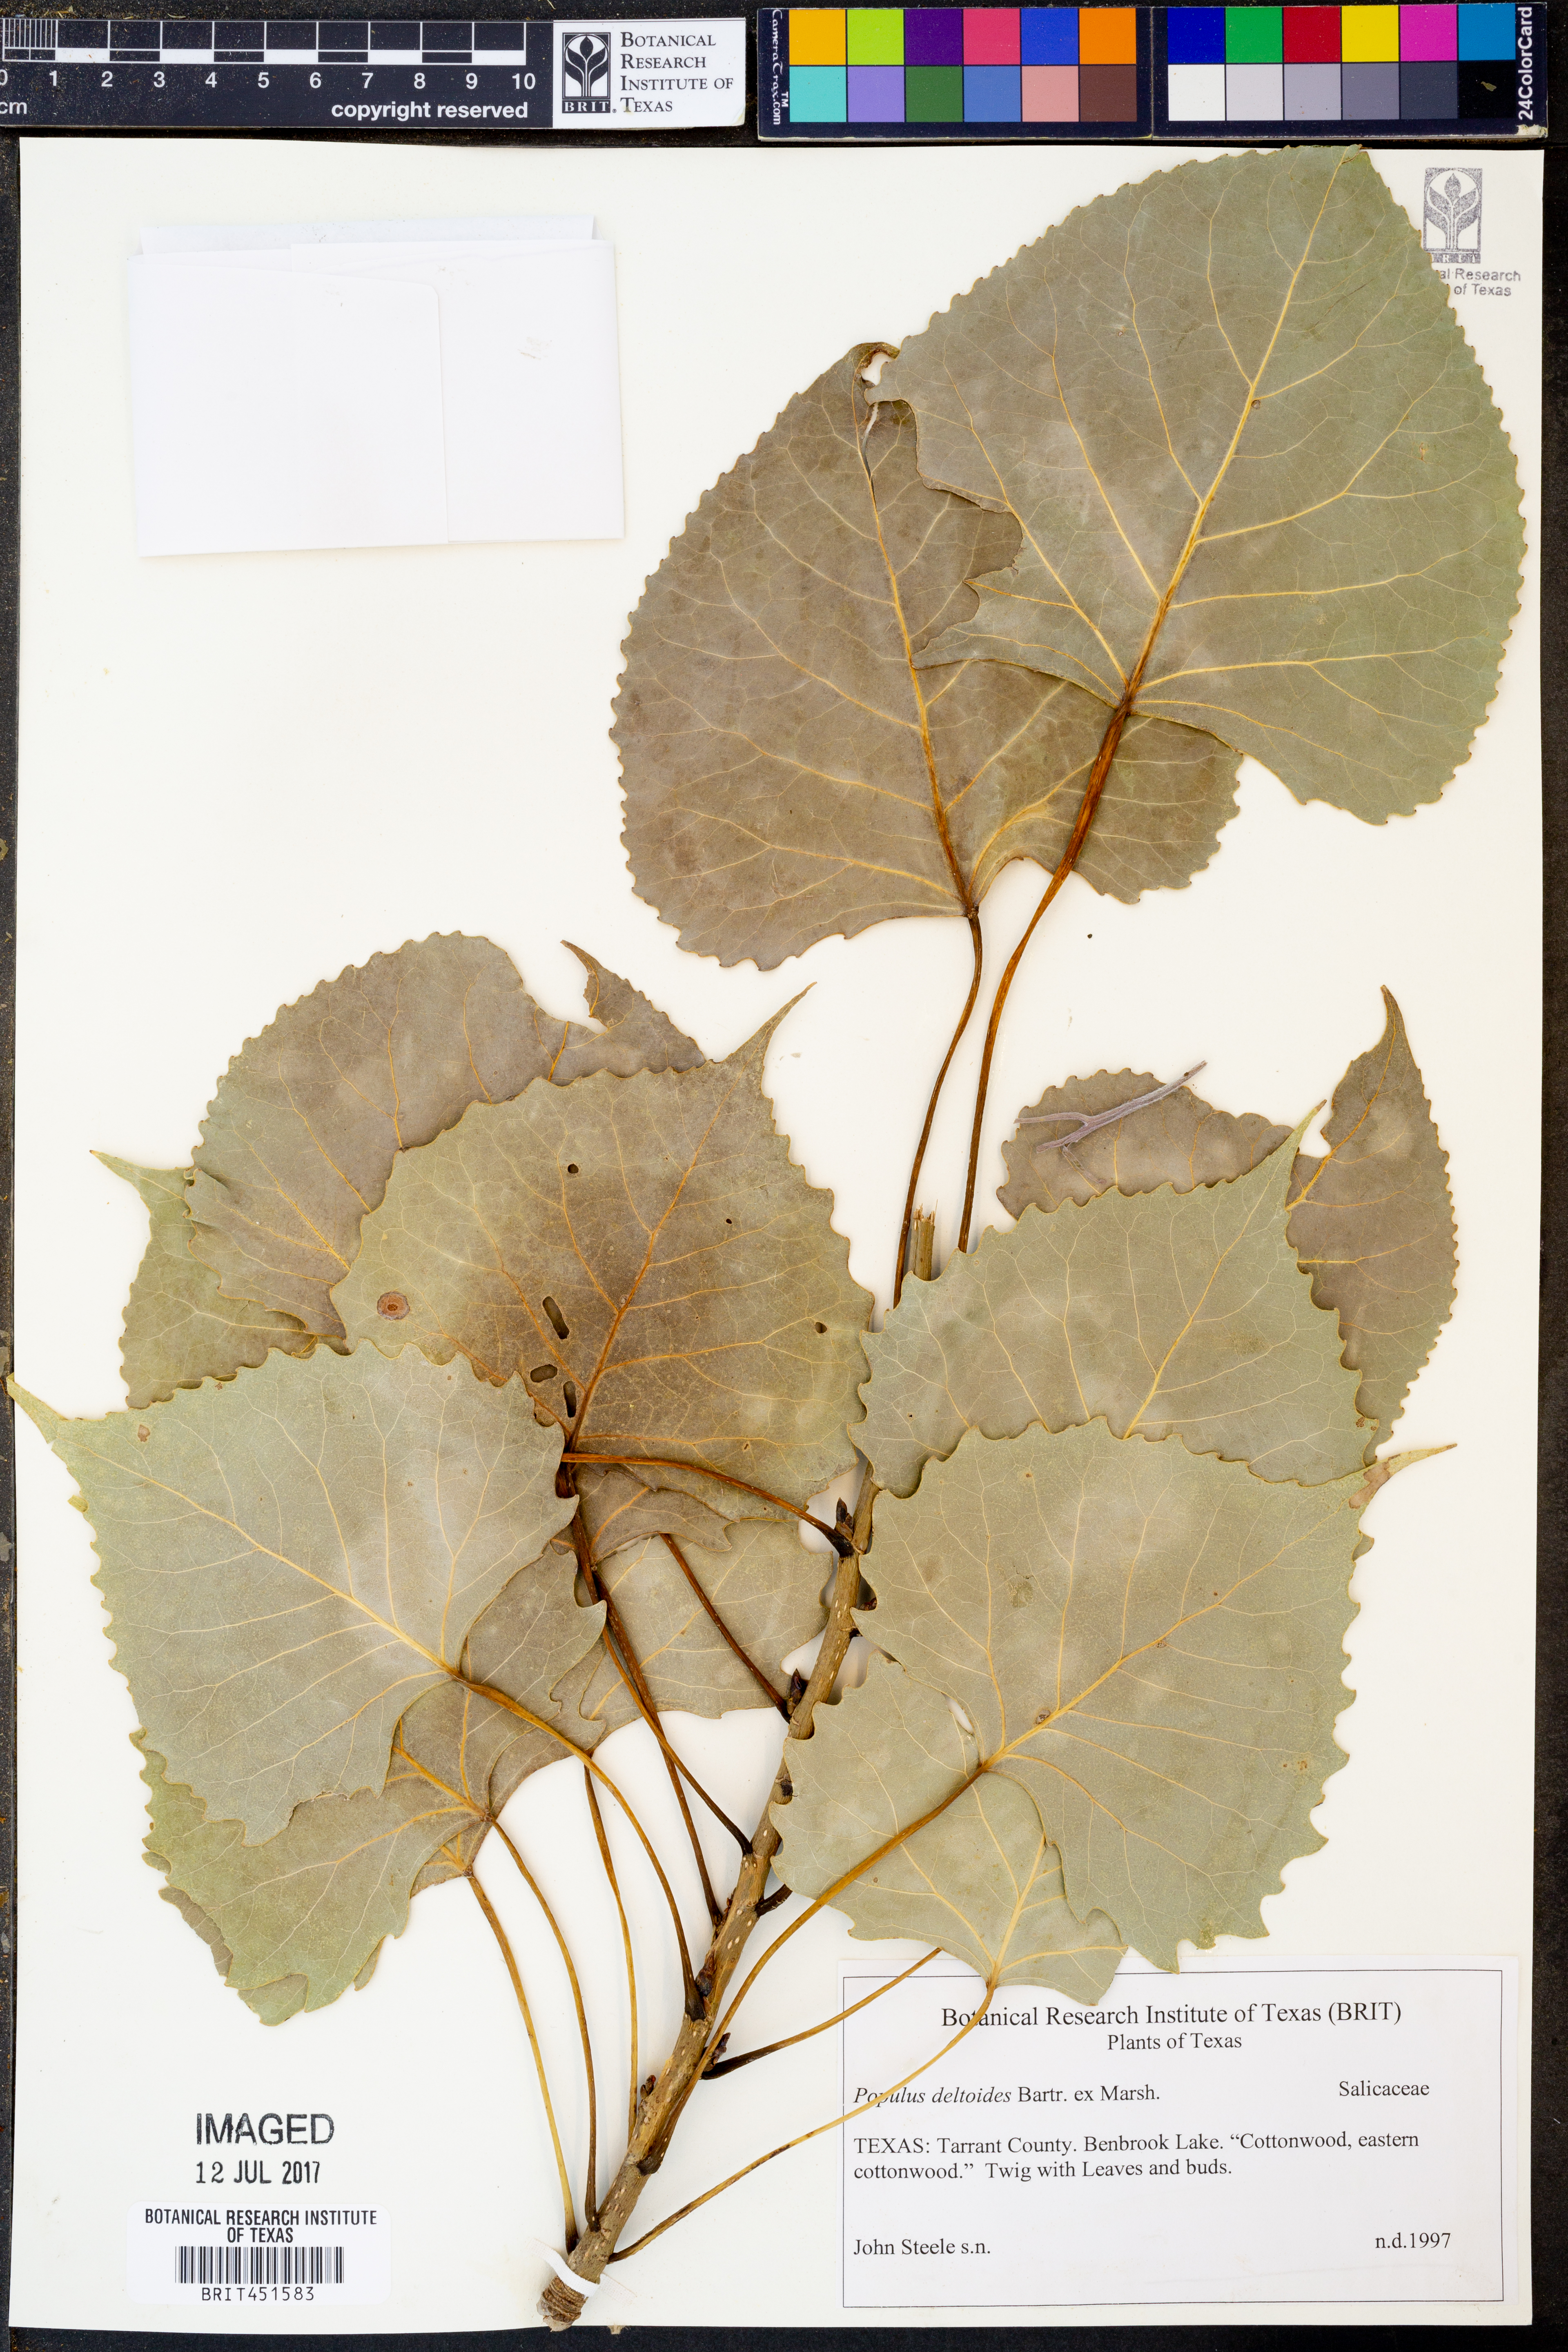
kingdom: Plantae
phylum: Tracheophyta
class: Magnoliopsida
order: Malpighiales
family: Salicaceae
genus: Populus
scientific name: Populus deltoides
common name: Eastern cottonwood
